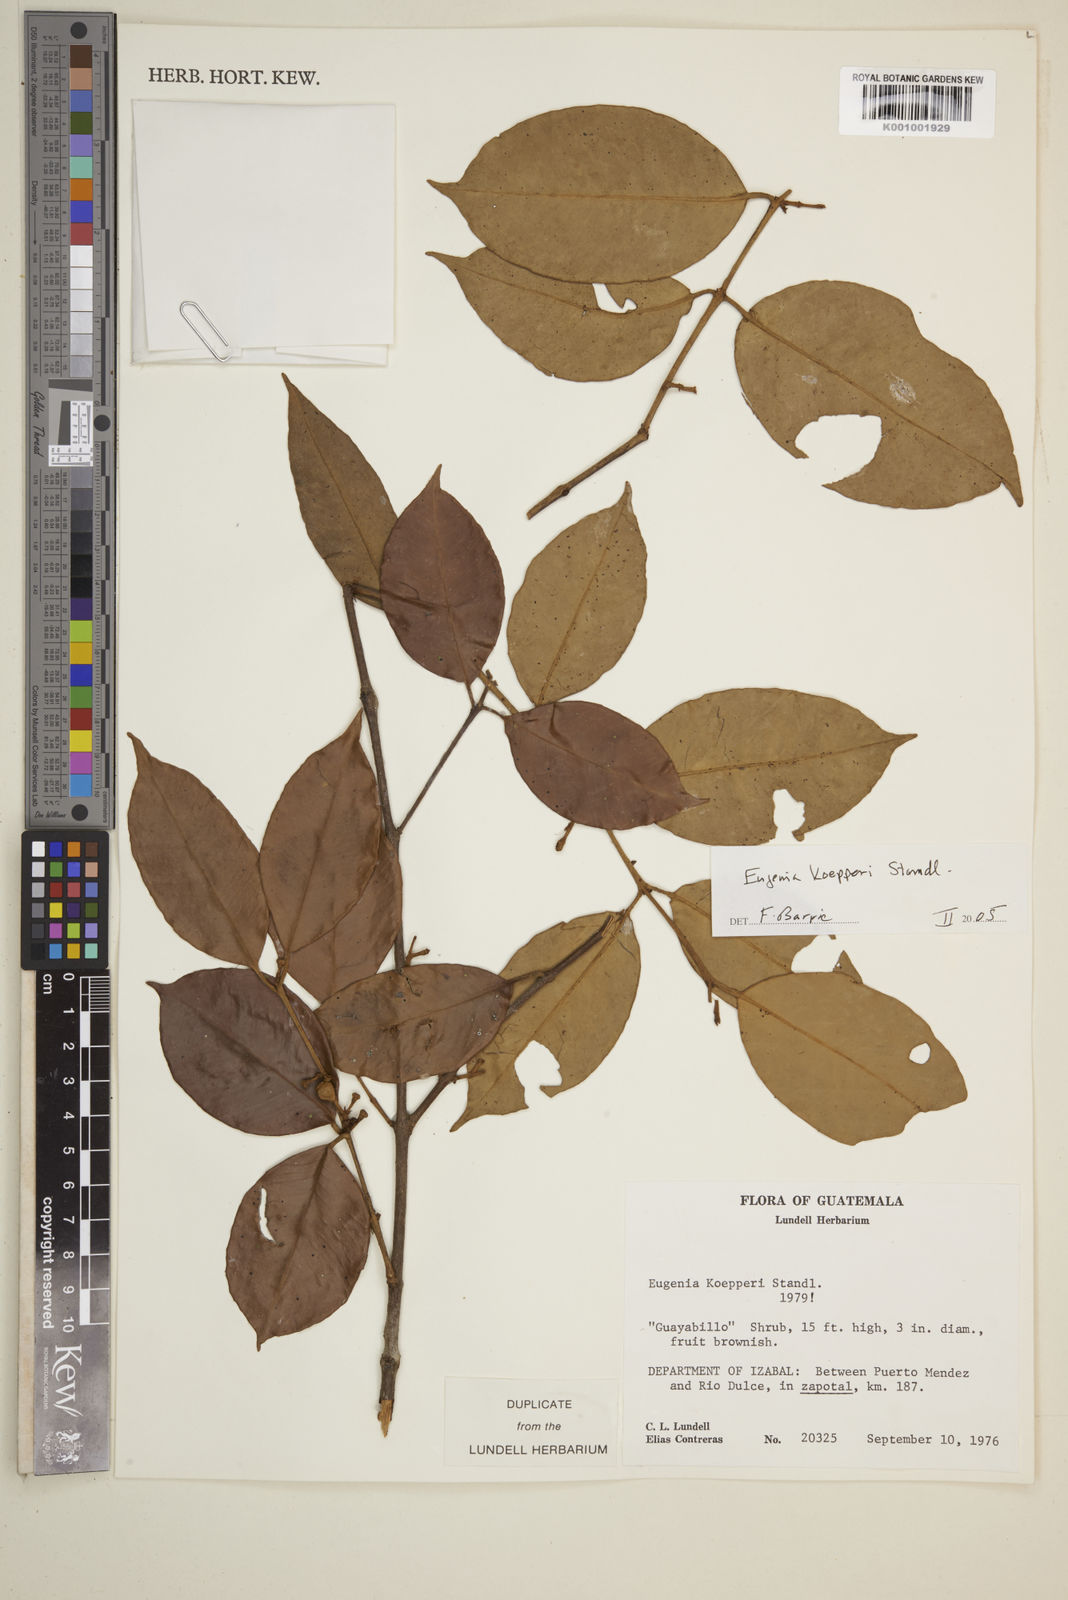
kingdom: Plantae
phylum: Tracheophyta
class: Magnoliopsida
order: Myrtales
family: Myrtaceae
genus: Eugenia
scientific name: Eugenia koepperi
